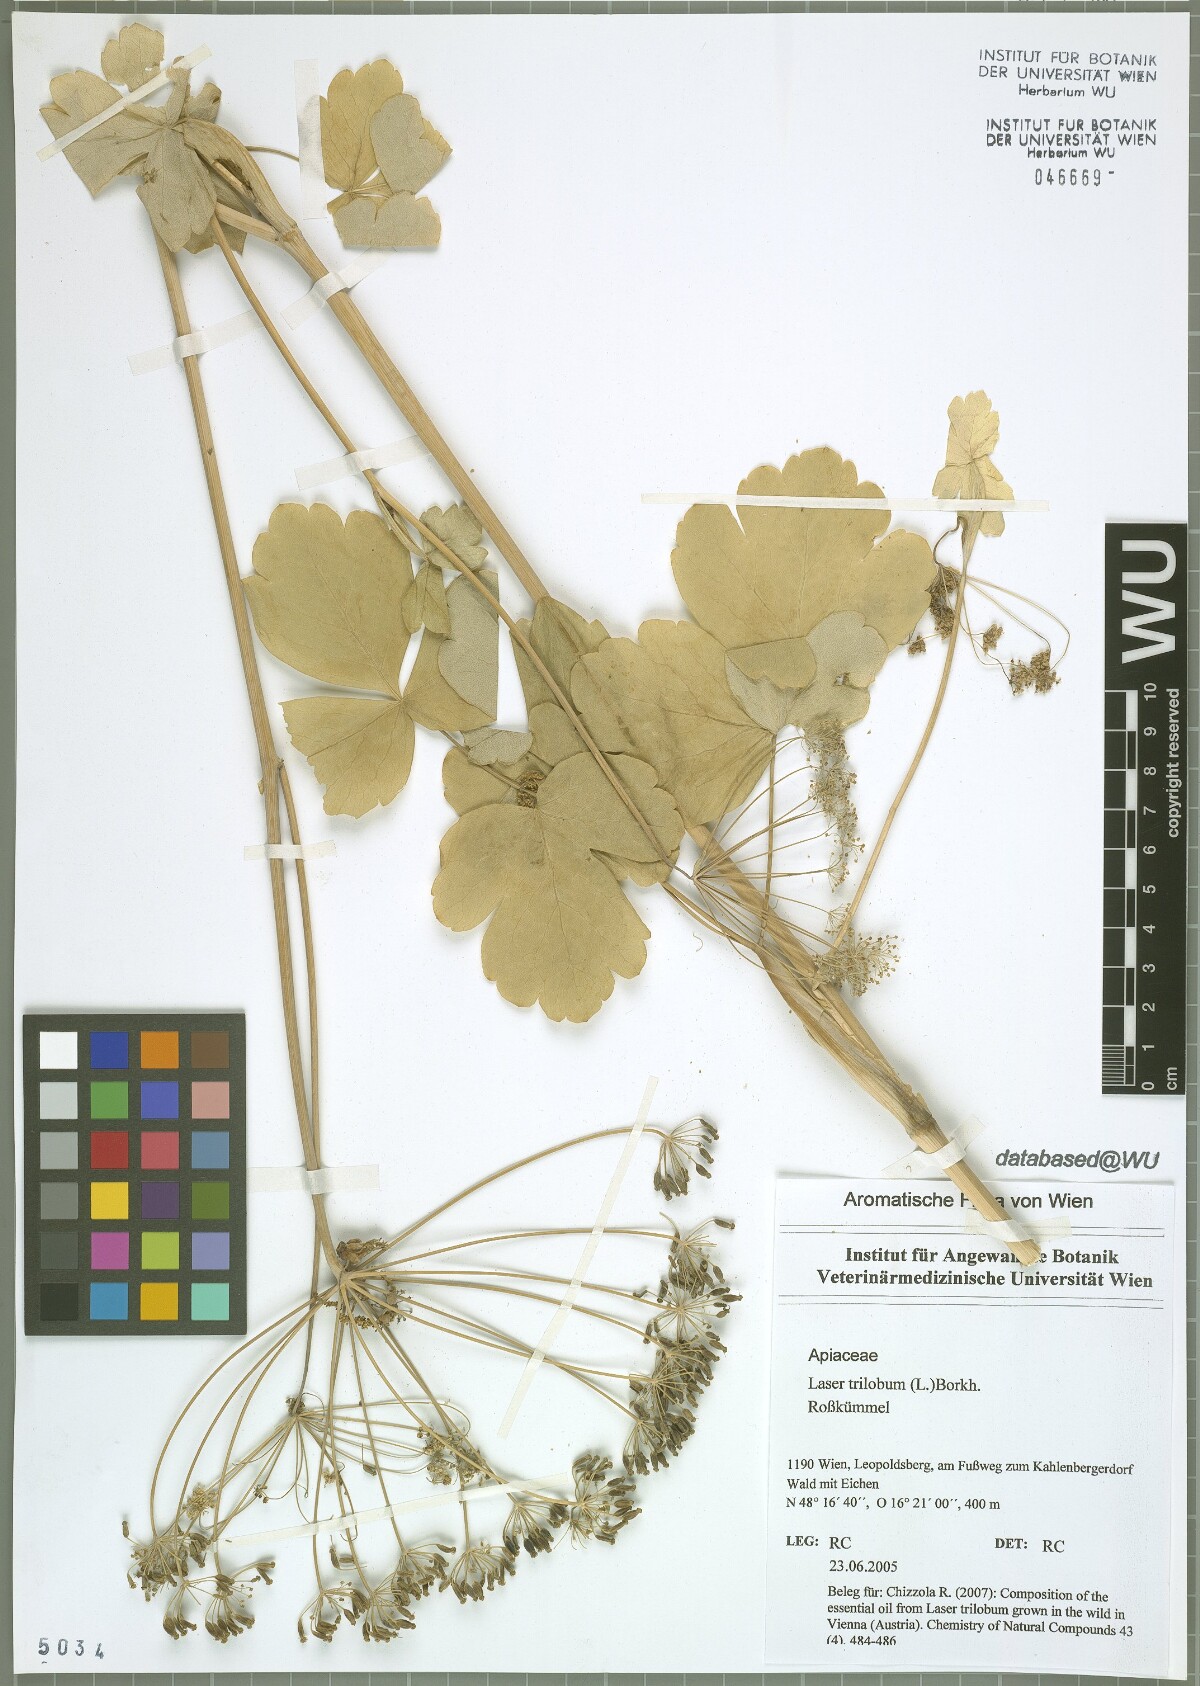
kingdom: Plantae
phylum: Tracheophyta
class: Magnoliopsida
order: Apiales
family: Apiaceae
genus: Laser
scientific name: Laser trilobum
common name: Laser
